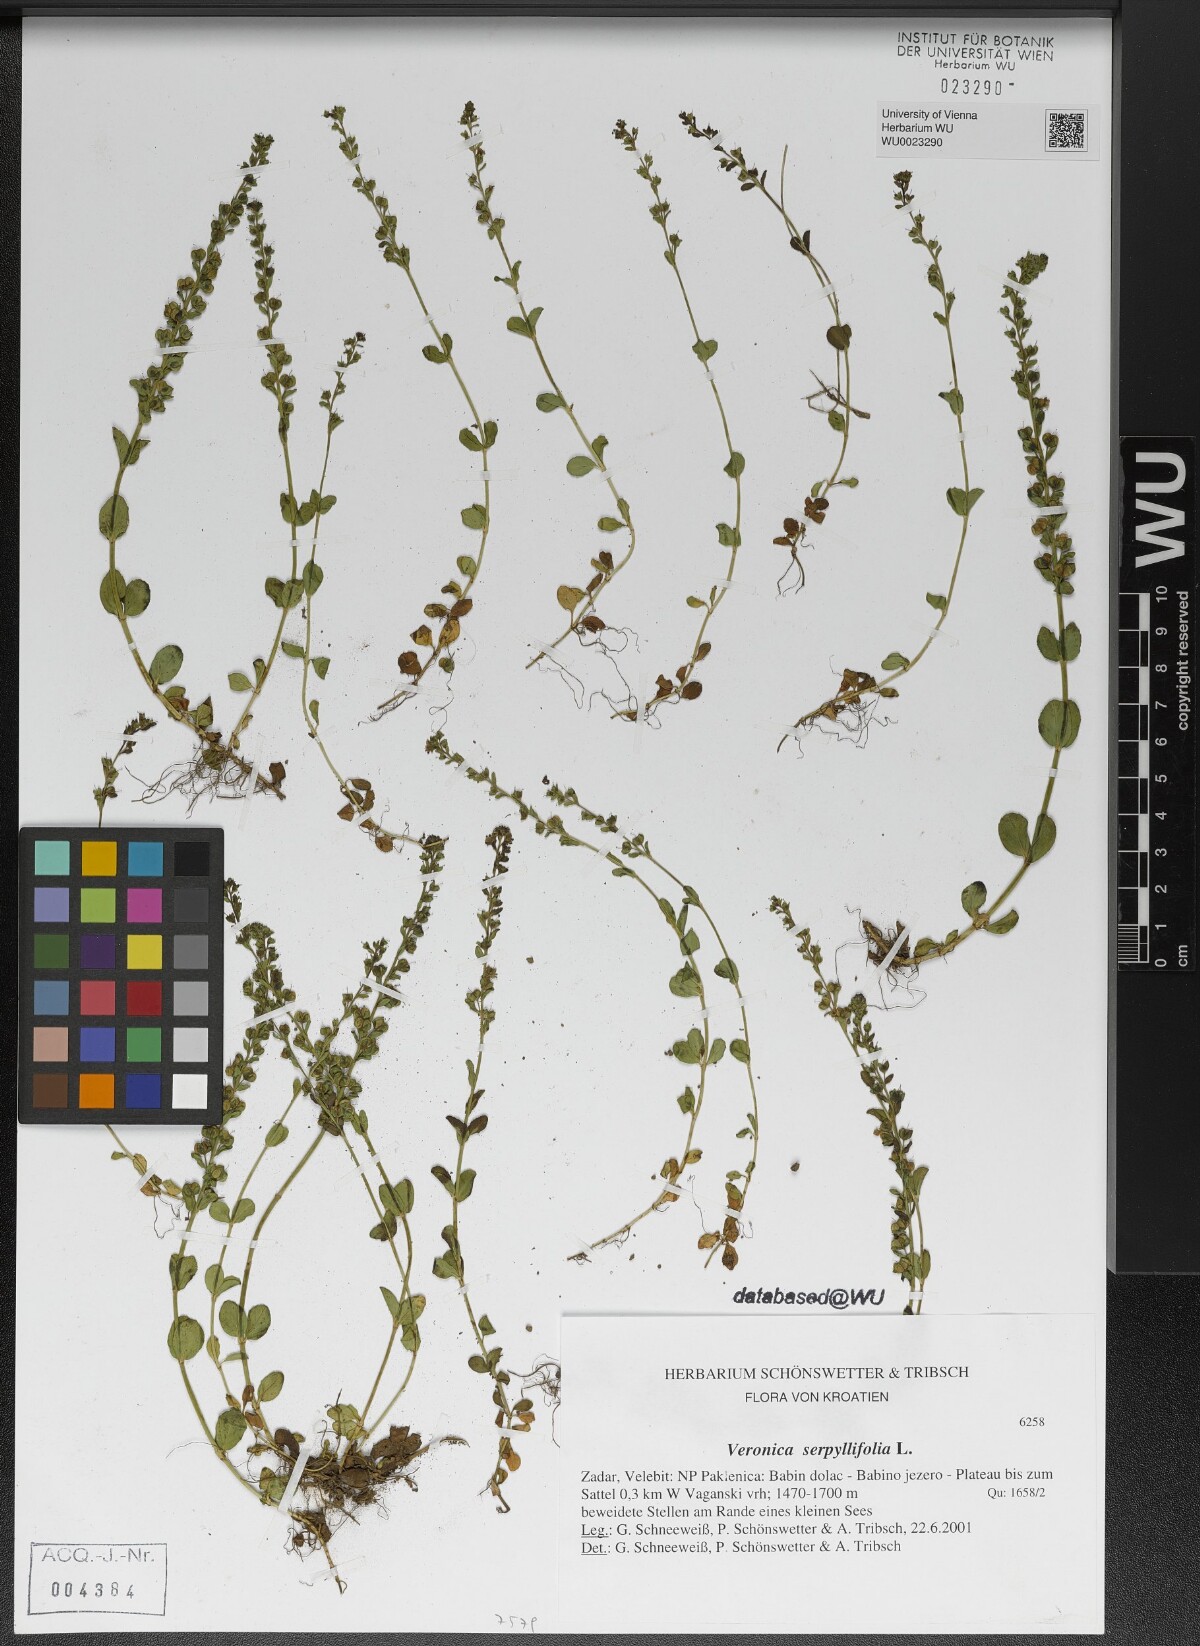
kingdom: Plantae
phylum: Tracheophyta
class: Magnoliopsida
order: Lamiales
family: Plantaginaceae
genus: Veronica
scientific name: Veronica serpyllifolia
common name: Thyme-leaved speedwell
